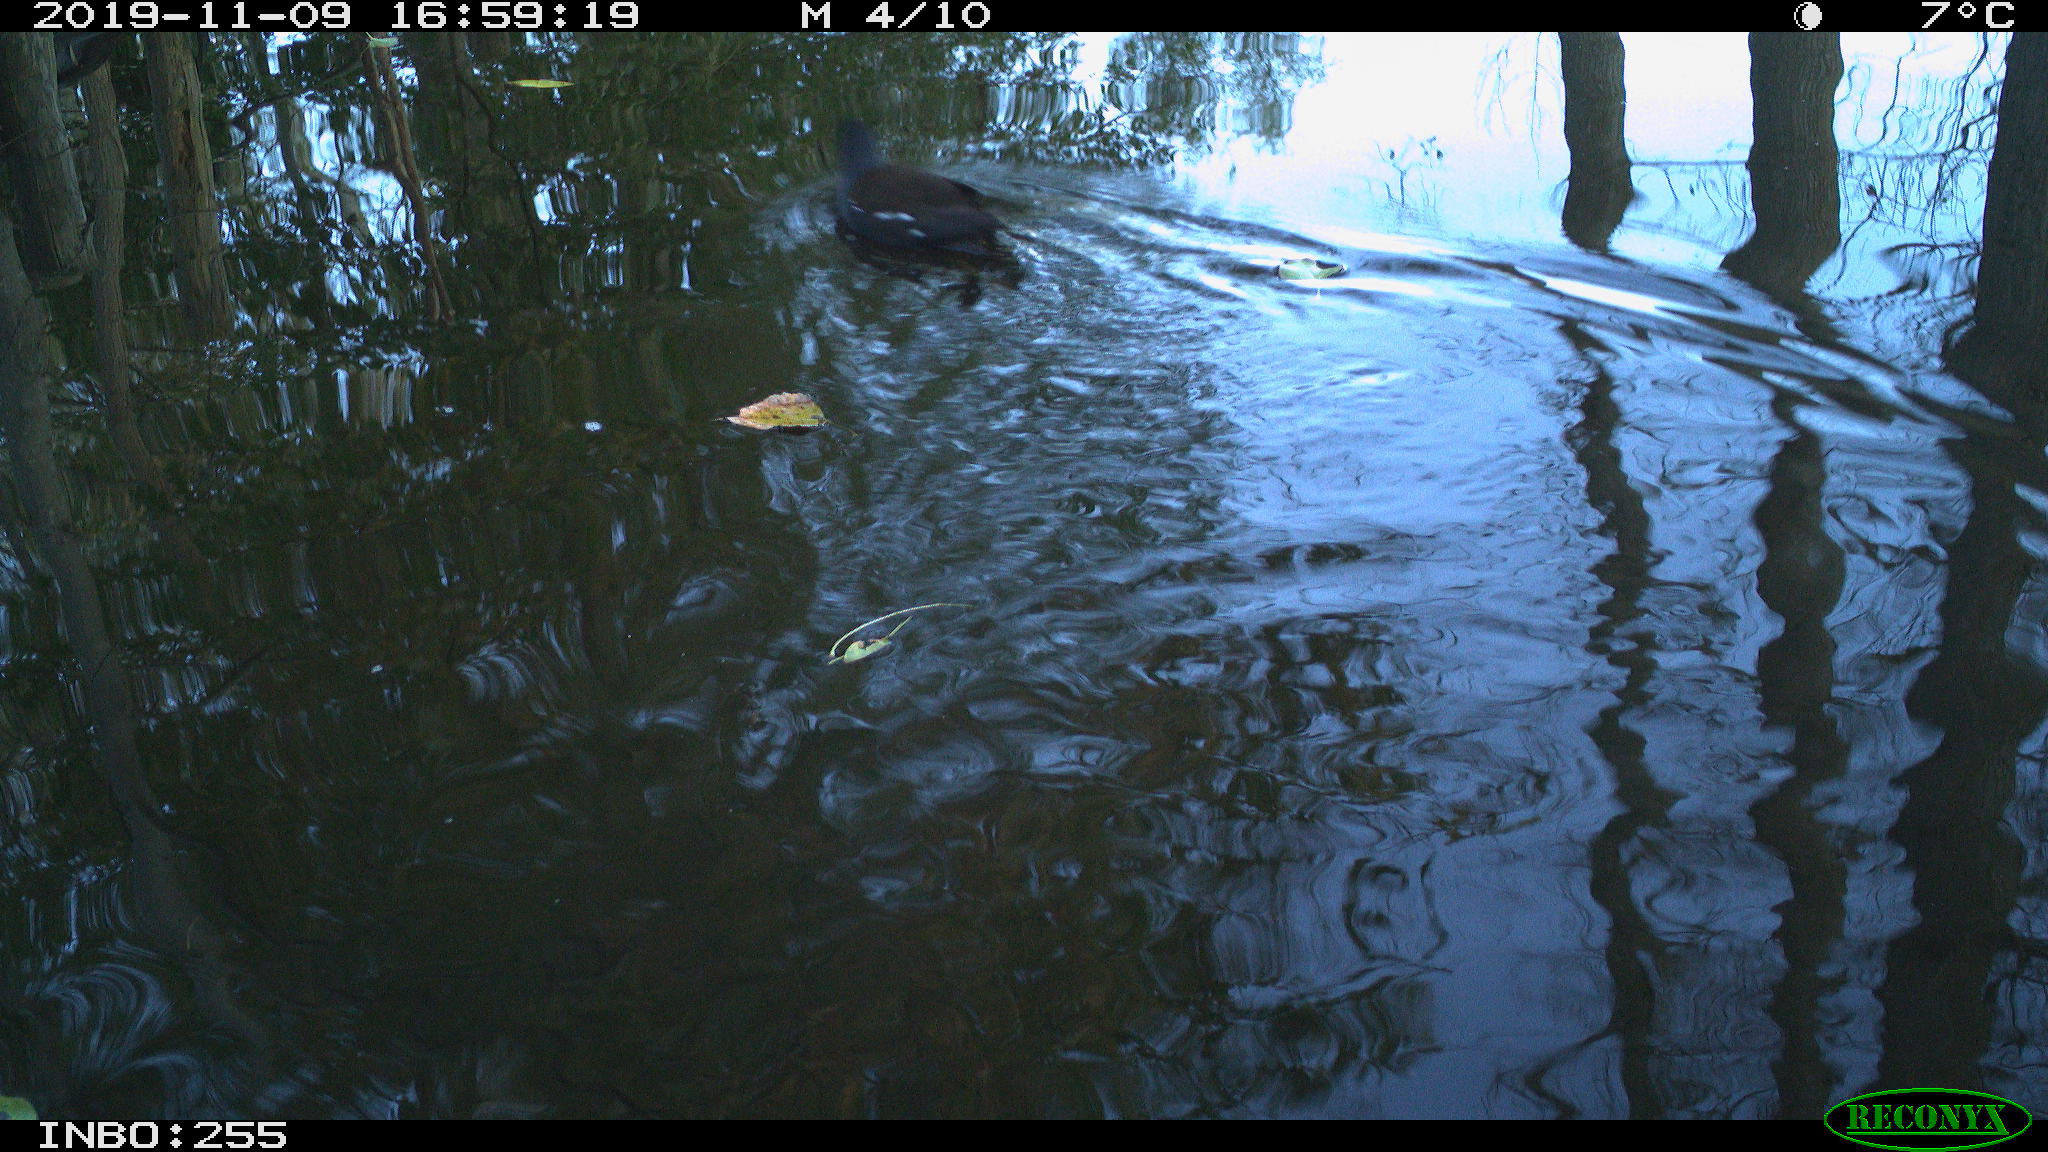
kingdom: Animalia
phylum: Chordata
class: Aves
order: Gruiformes
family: Rallidae
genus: Gallinula
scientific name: Gallinula chloropus
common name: Common moorhen
